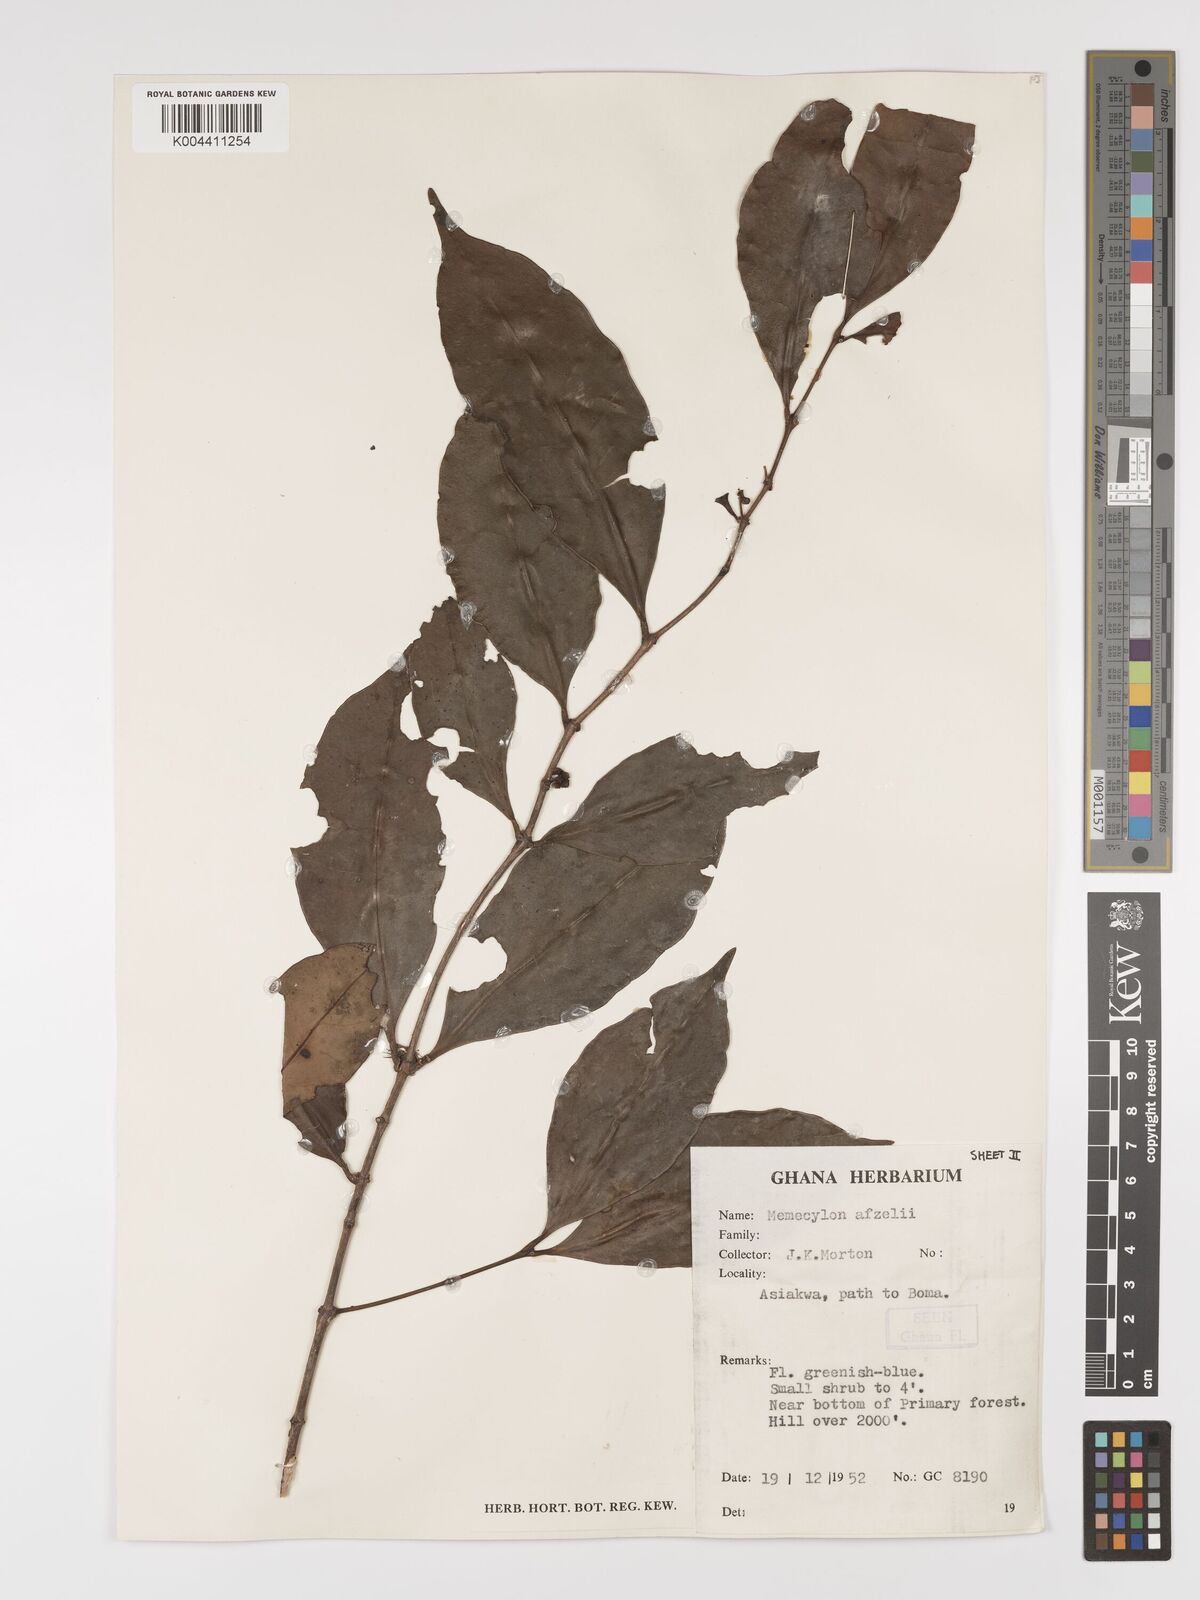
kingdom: Plantae
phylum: Tracheophyta
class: Magnoliopsida
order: Myrtales
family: Melastomataceae
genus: Memecylon
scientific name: Memecylon afzelii
